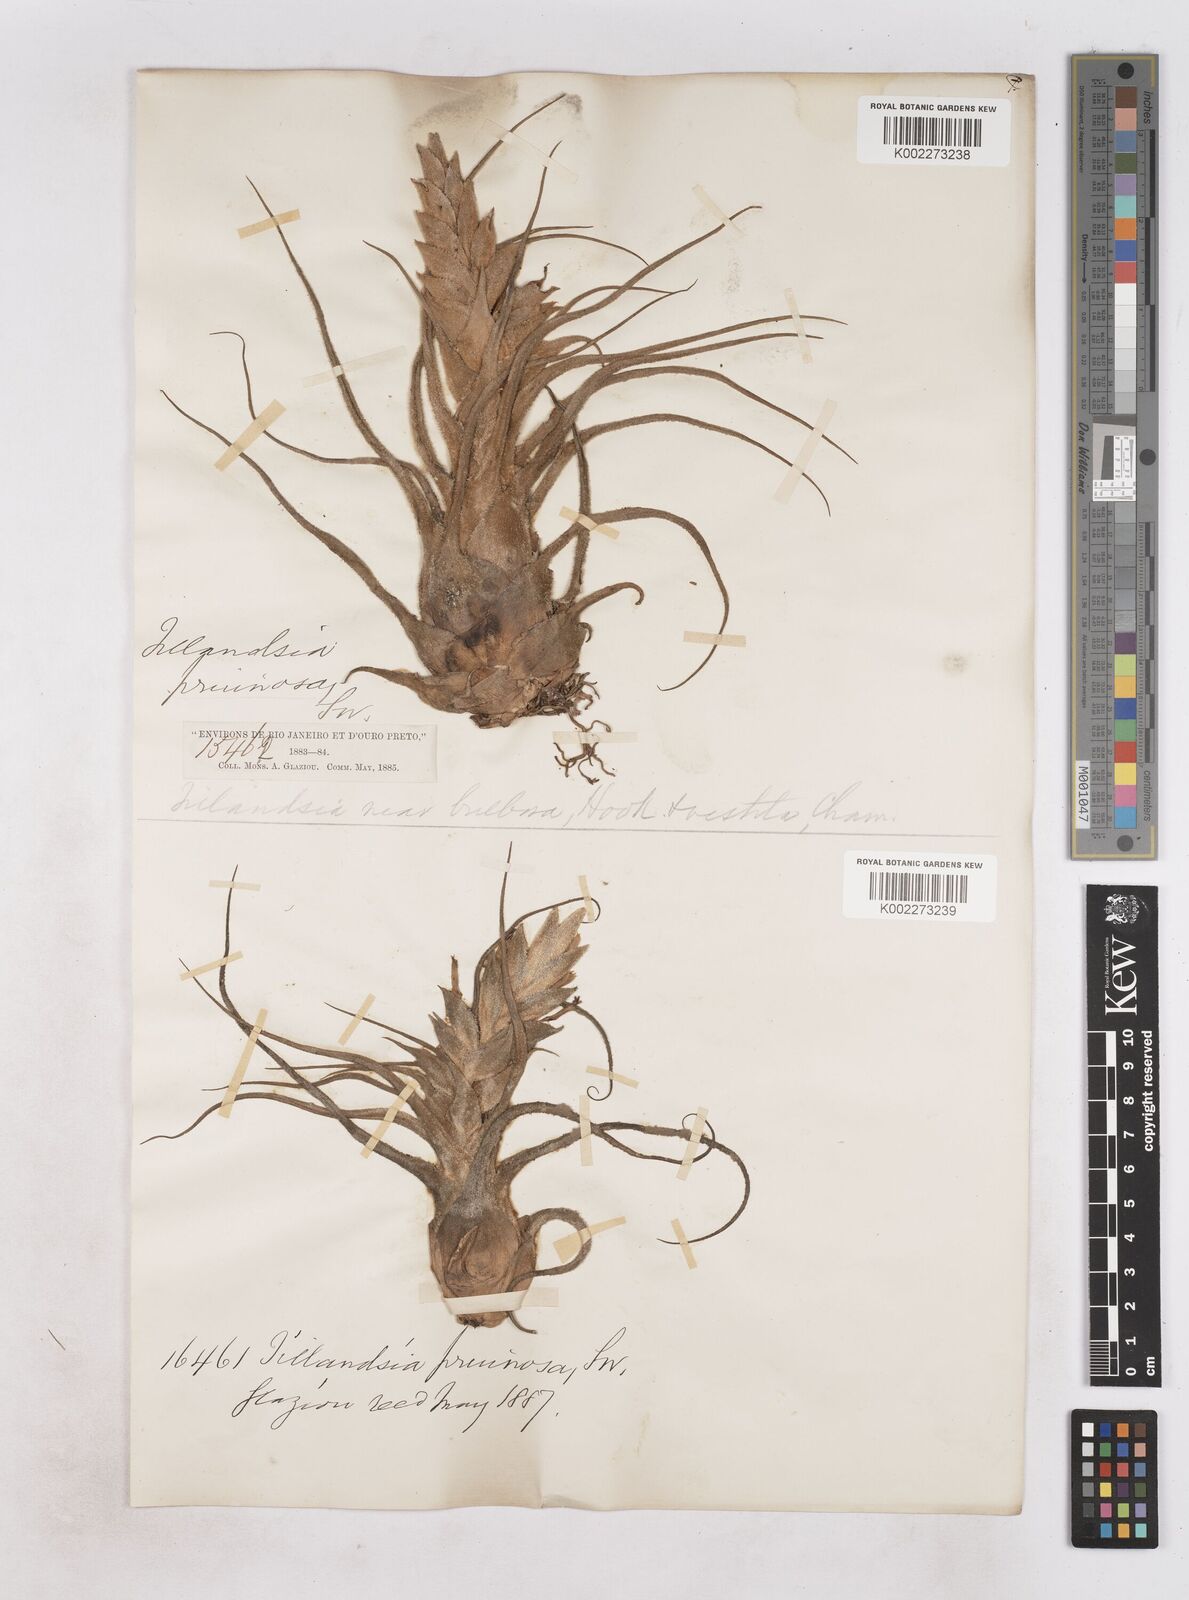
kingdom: Plantae
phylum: Tracheophyta
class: Liliopsida
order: Poales
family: Bromeliaceae
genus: Tillandsia
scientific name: Tillandsia pruinosa
